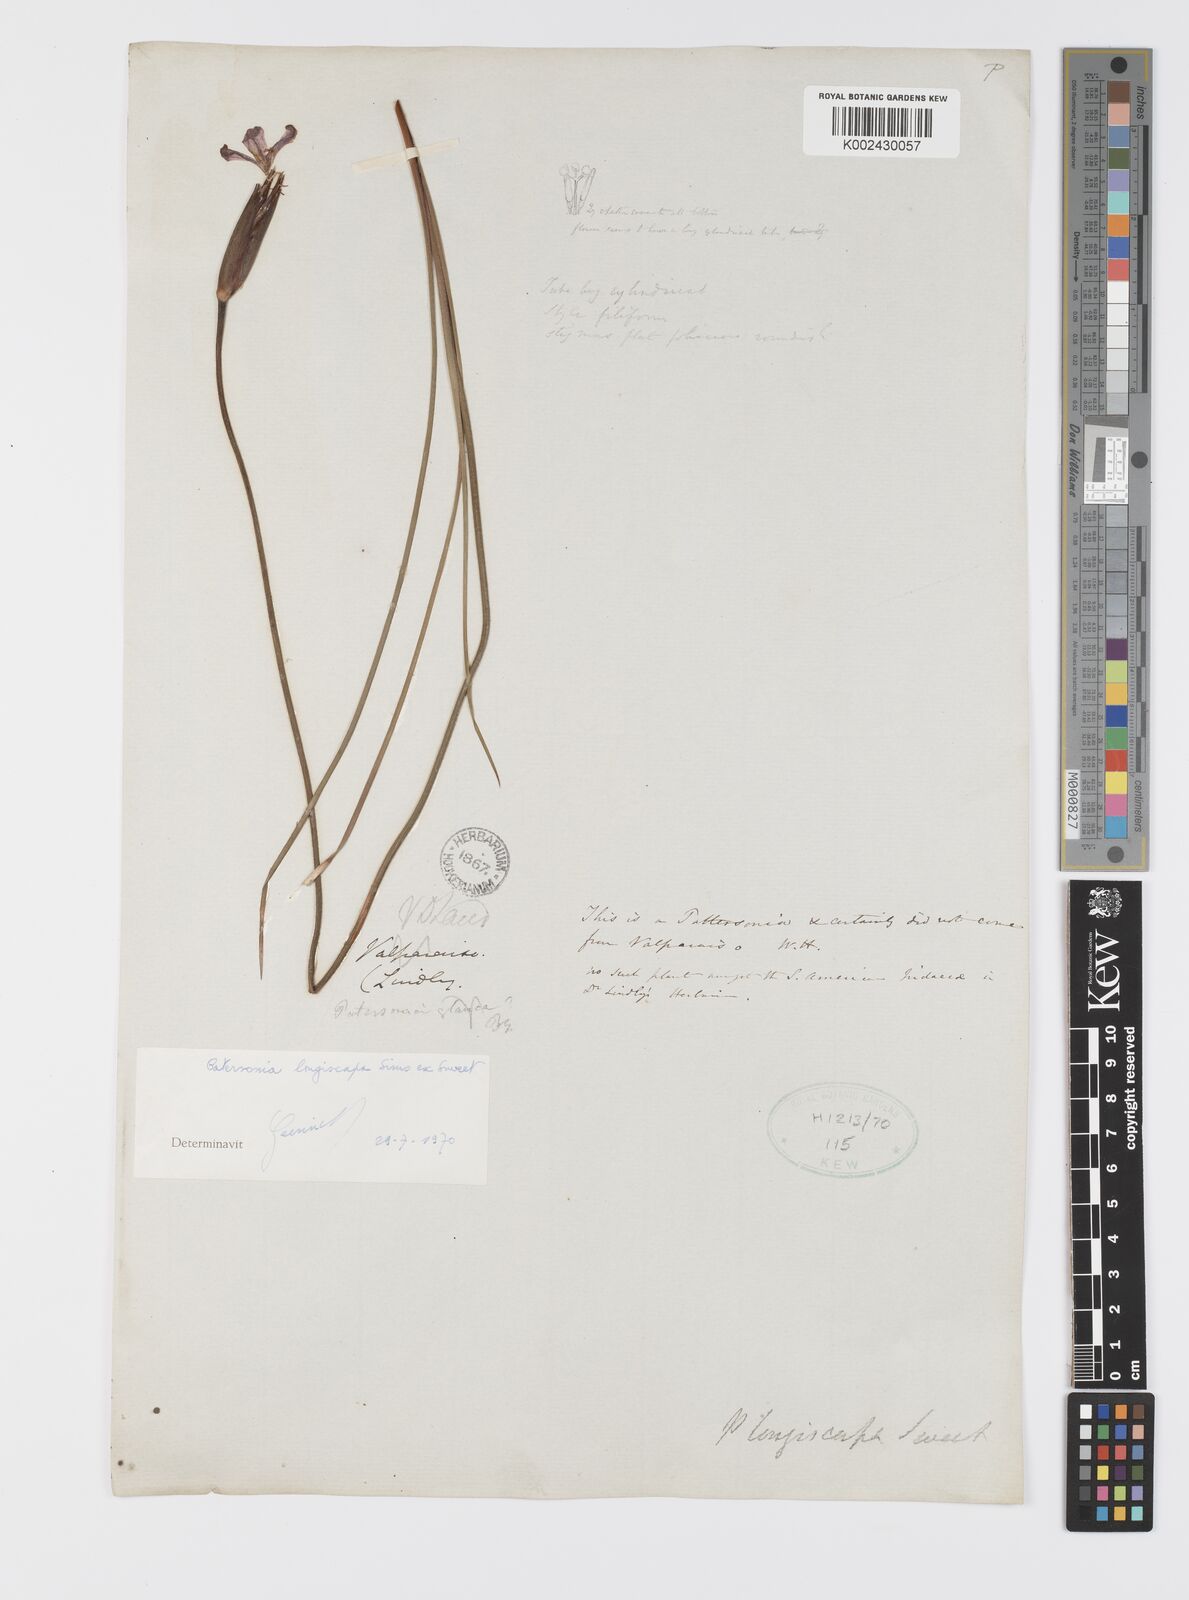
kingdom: Plantae
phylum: Tracheophyta
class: Liliopsida
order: Asparagales
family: Iridaceae
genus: Patersonia
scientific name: Patersonia occidentalis
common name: Long purple-flag
